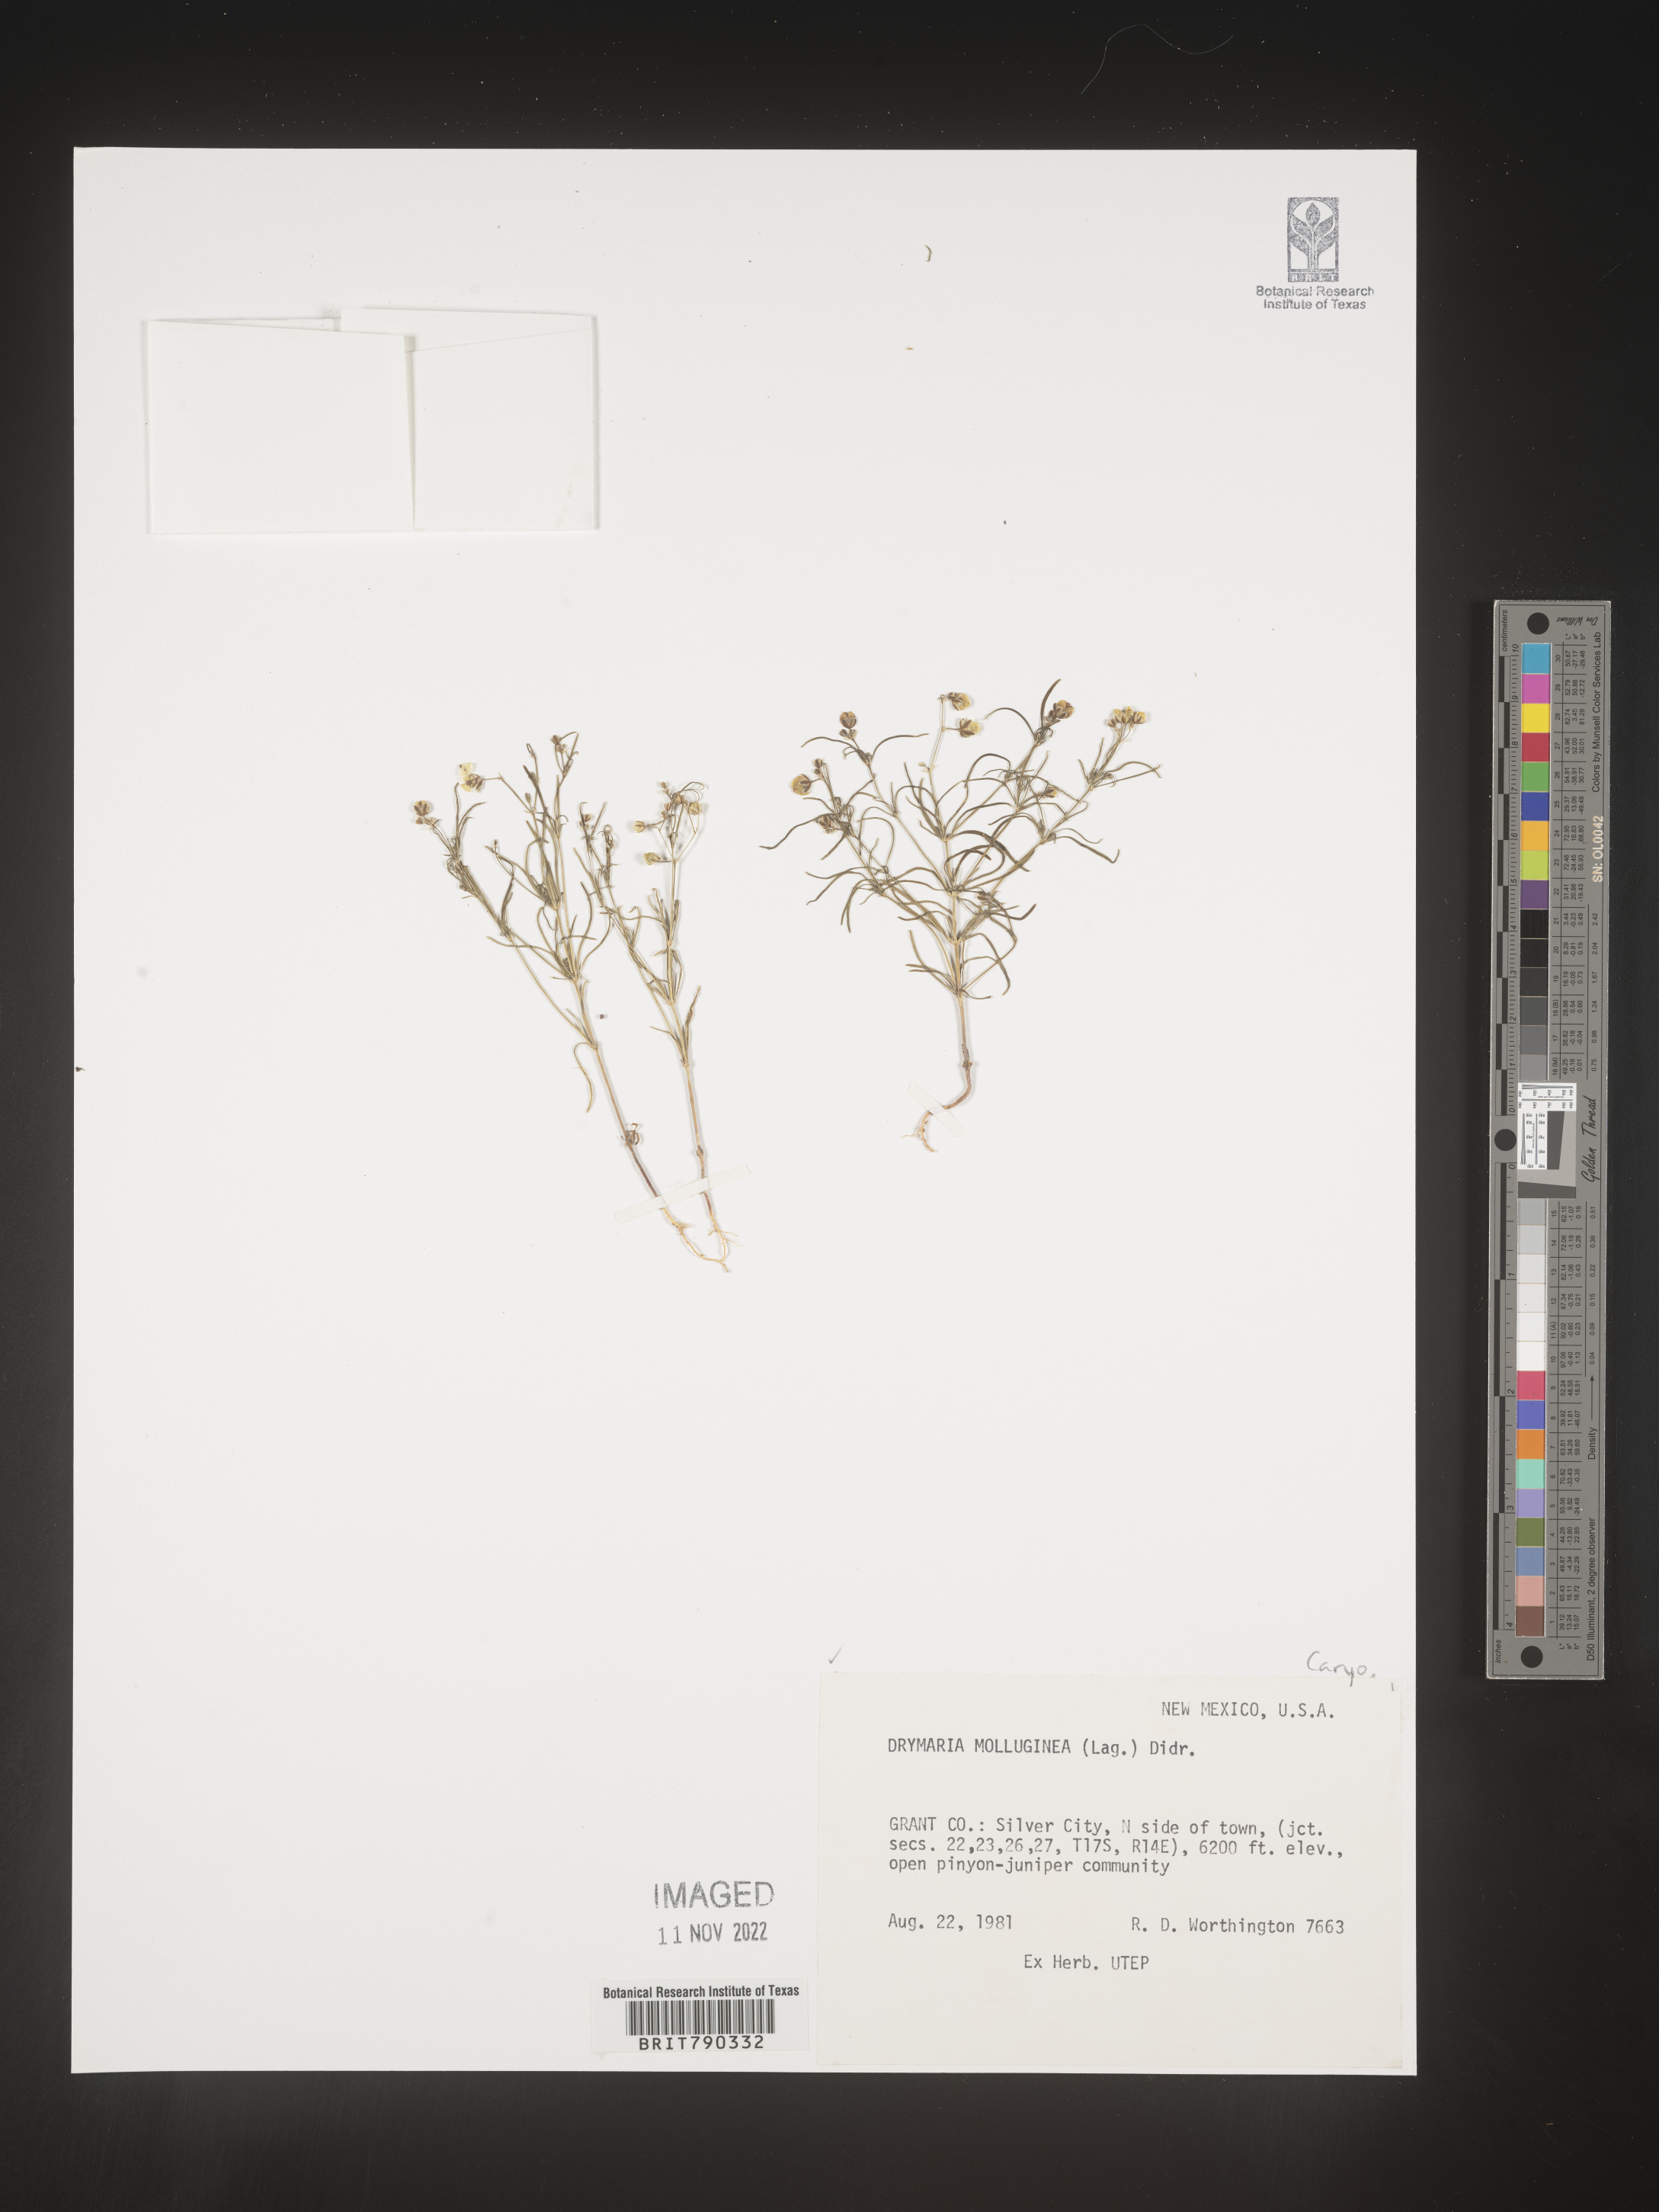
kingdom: Plantae
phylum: Tracheophyta
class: Magnoliopsida
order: Caryophyllales
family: Caryophyllaceae
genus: Drymaria
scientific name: Drymaria
